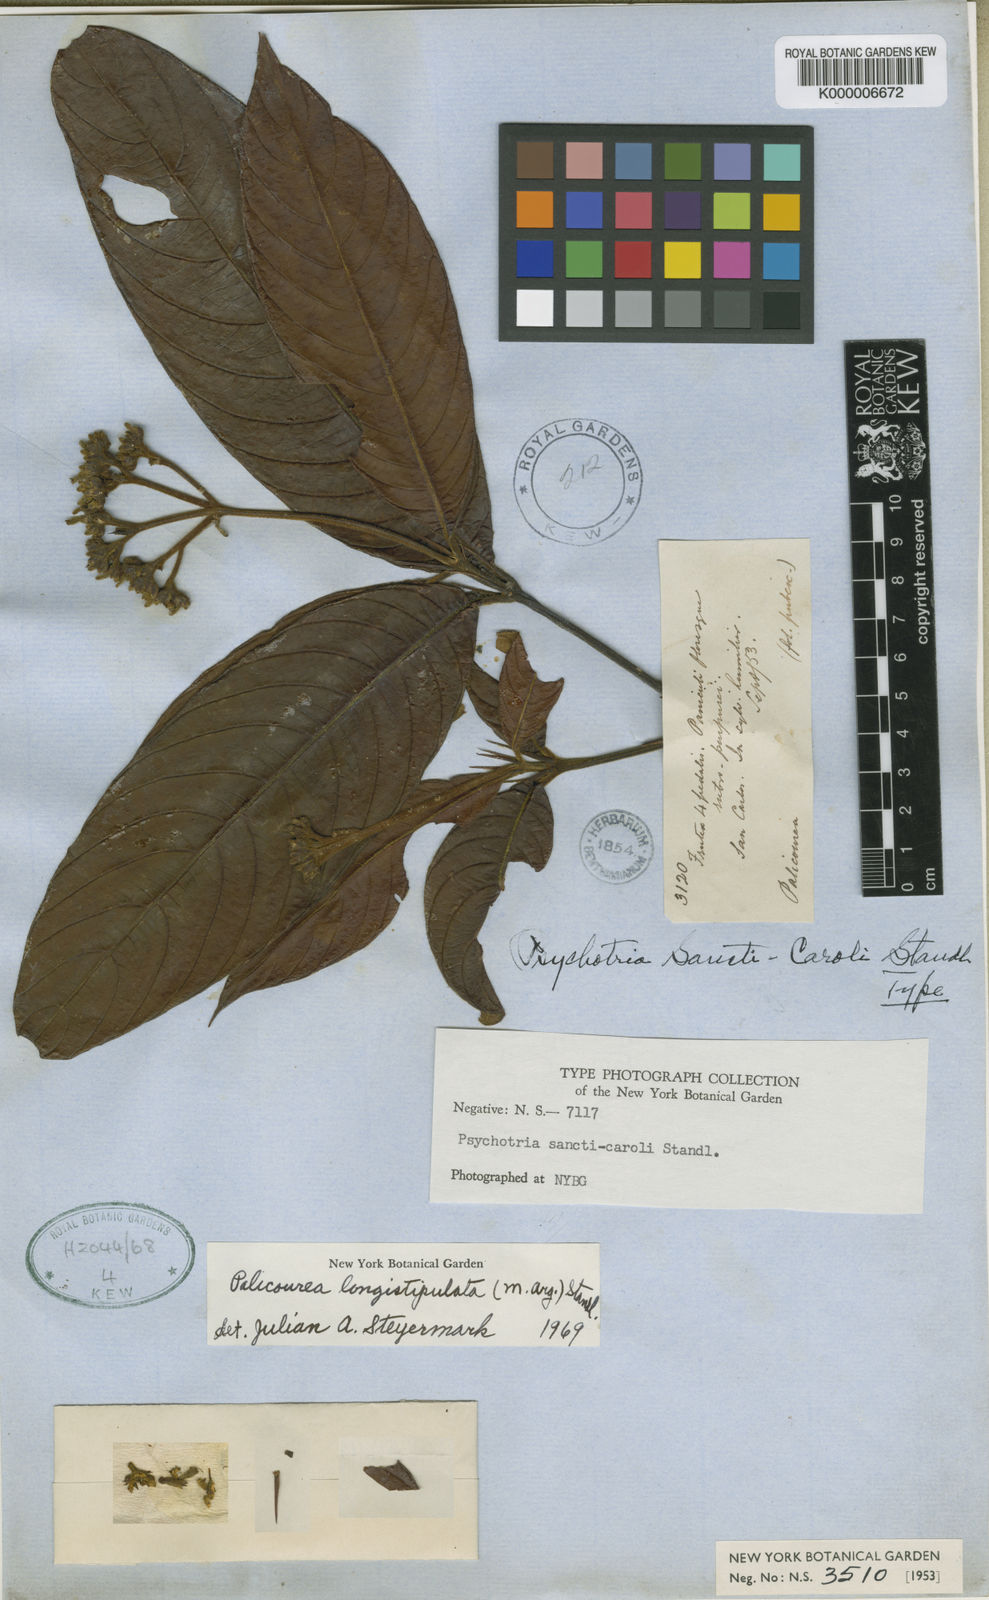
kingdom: Plantae
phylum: Tracheophyta
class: Magnoliopsida
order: Gentianales
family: Rubiaceae
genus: Palicourea
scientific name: Palicourea
